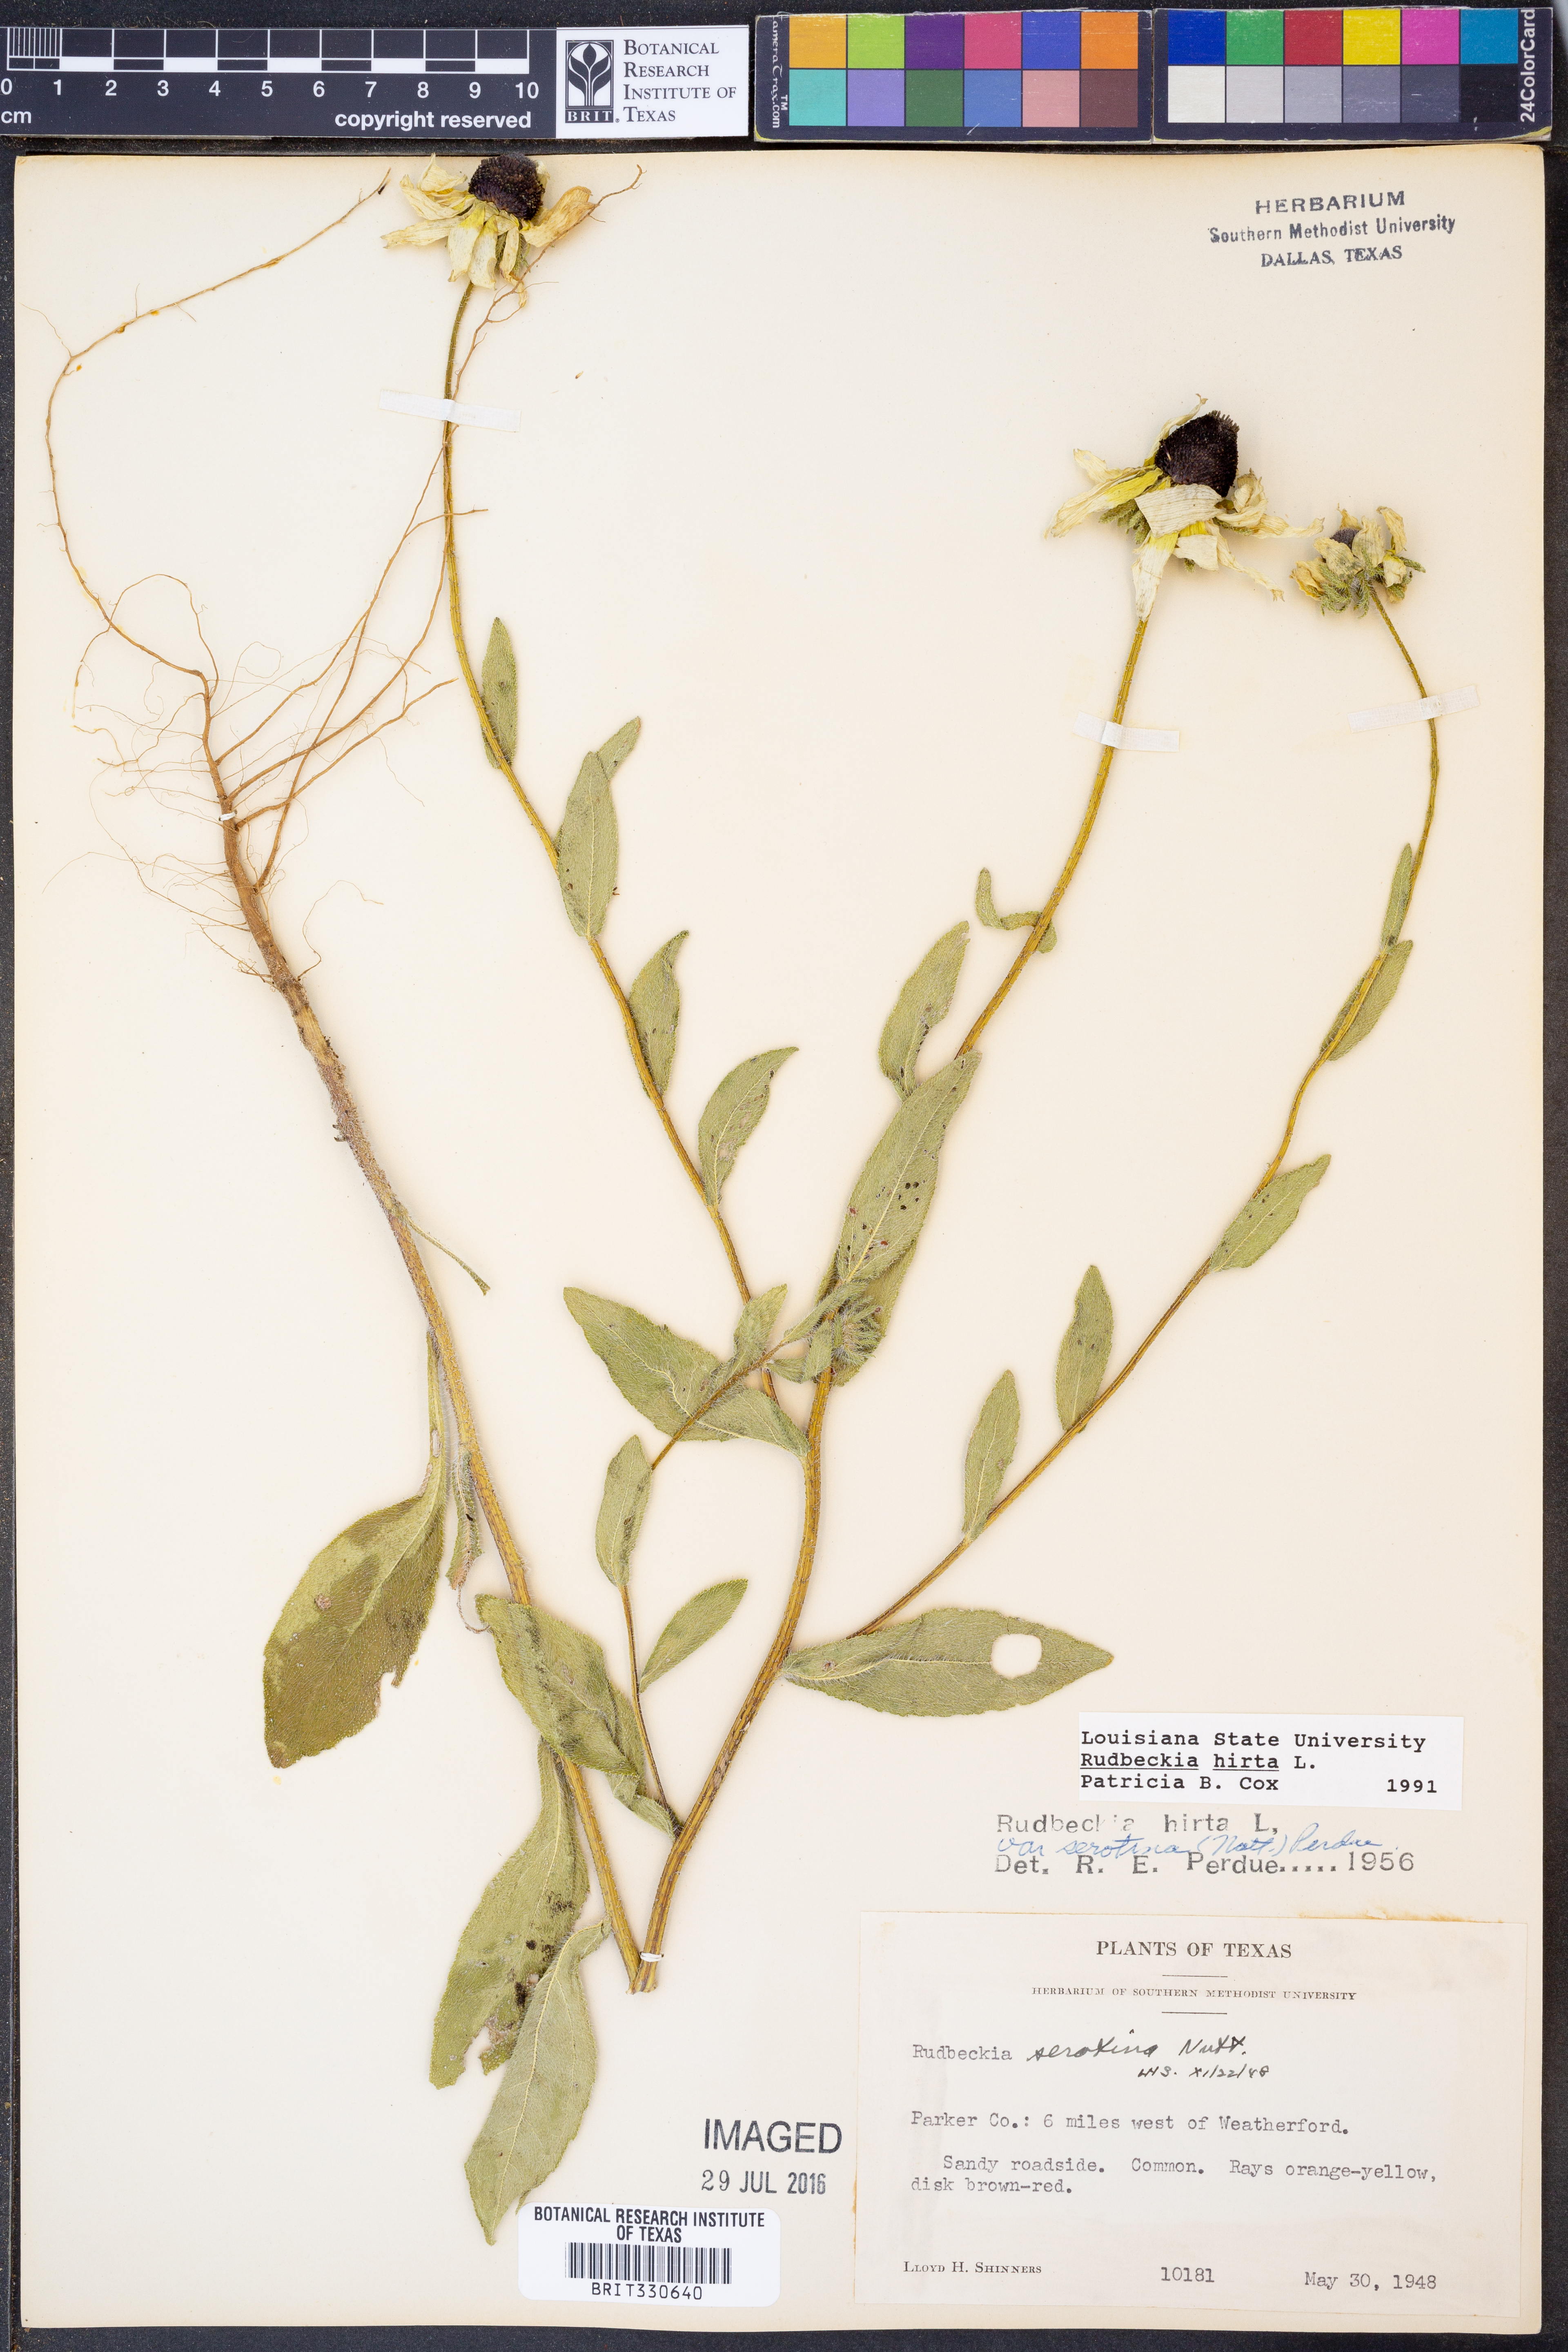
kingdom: Plantae
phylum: Tracheophyta
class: Magnoliopsida
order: Asterales
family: Asteraceae
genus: Rudbeckia
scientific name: Rudbeckia hirta
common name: Black-eyed-susan
